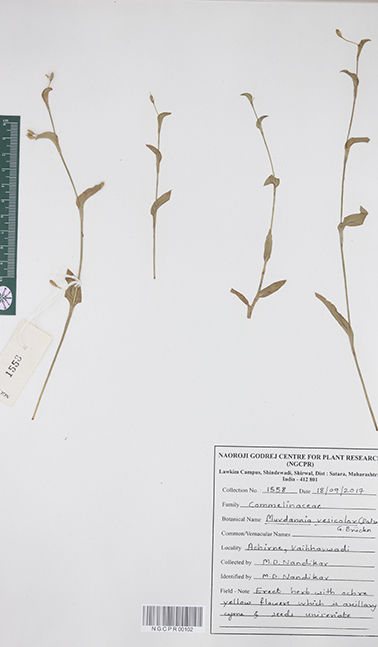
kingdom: Plantae
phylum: Tracheophyta
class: Liliopsida
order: Commelinales
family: Commelinaceae
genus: Murdannia
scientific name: Murdannia versicolor
